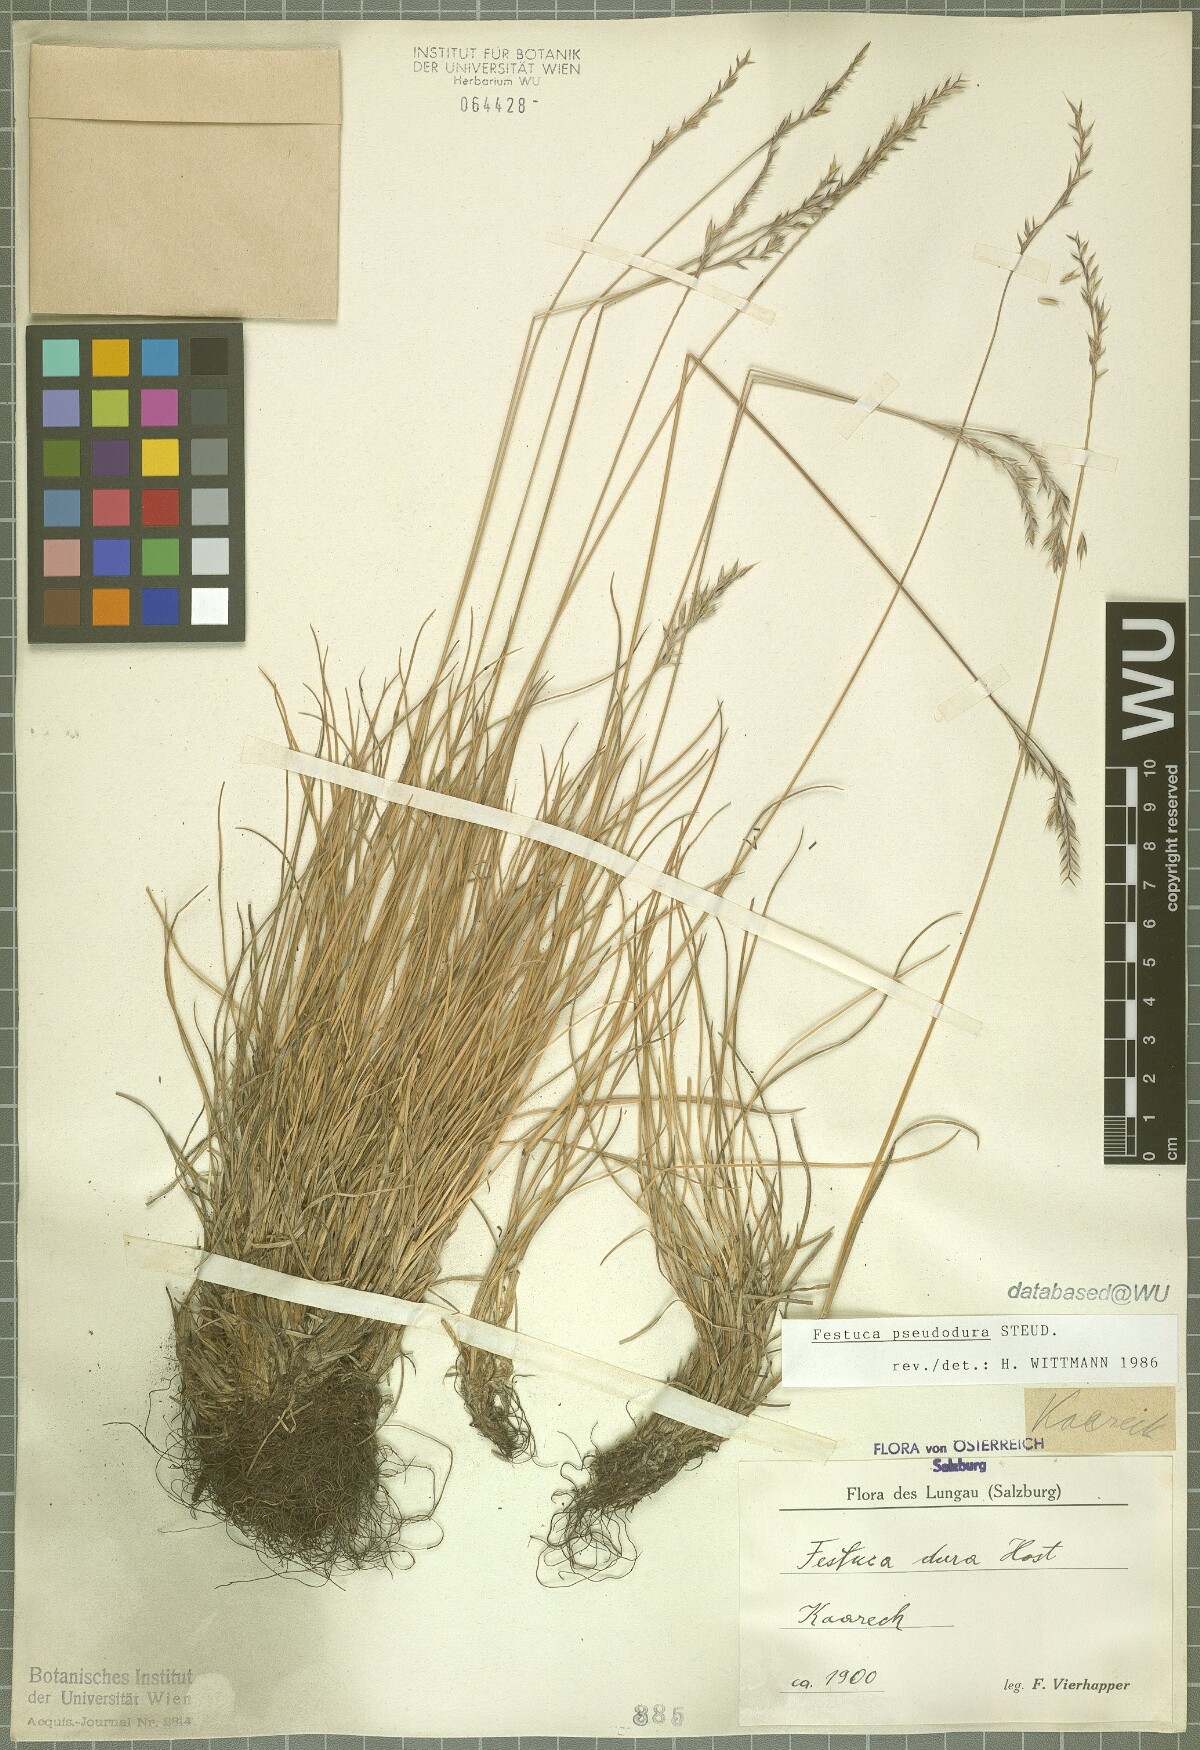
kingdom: Plantae
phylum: Tracheophyta
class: Liliopsida
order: Poales
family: Poaceae
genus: Festuca
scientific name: Festuca pseudodura
